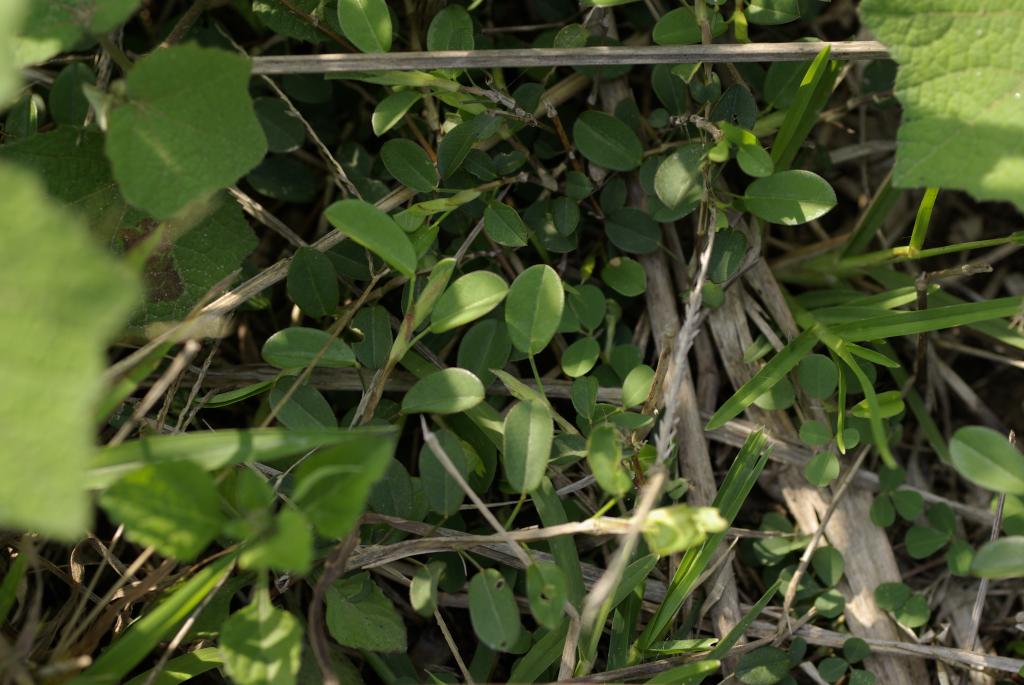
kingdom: Plantae
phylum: Tracheophyta
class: Magnoliopsida
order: Fabales
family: Fabaceae
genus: Alysicarpus
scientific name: Alysicarpus ovalifolius
